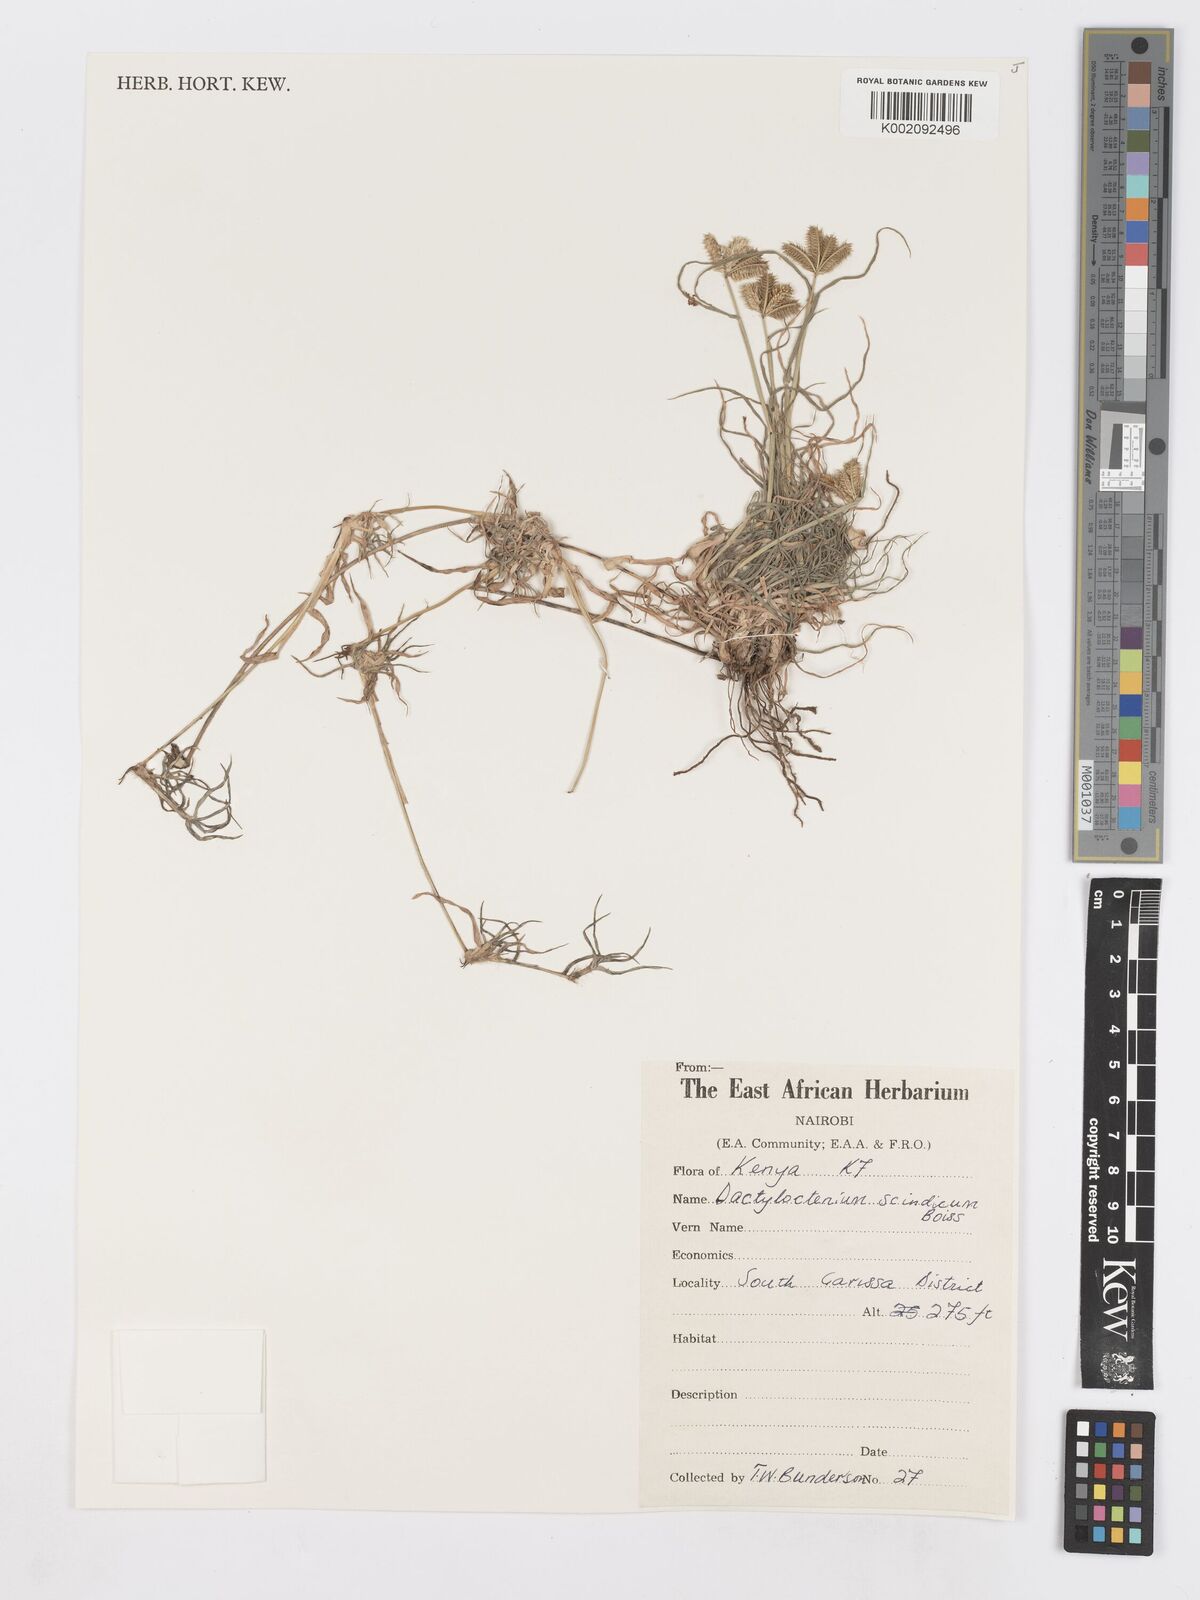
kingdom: Plantae
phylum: Tracheophyta
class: Liliopsida
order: Poales
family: Poaceae
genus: Dactyloctenium
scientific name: Dactyloctenium scindicum
